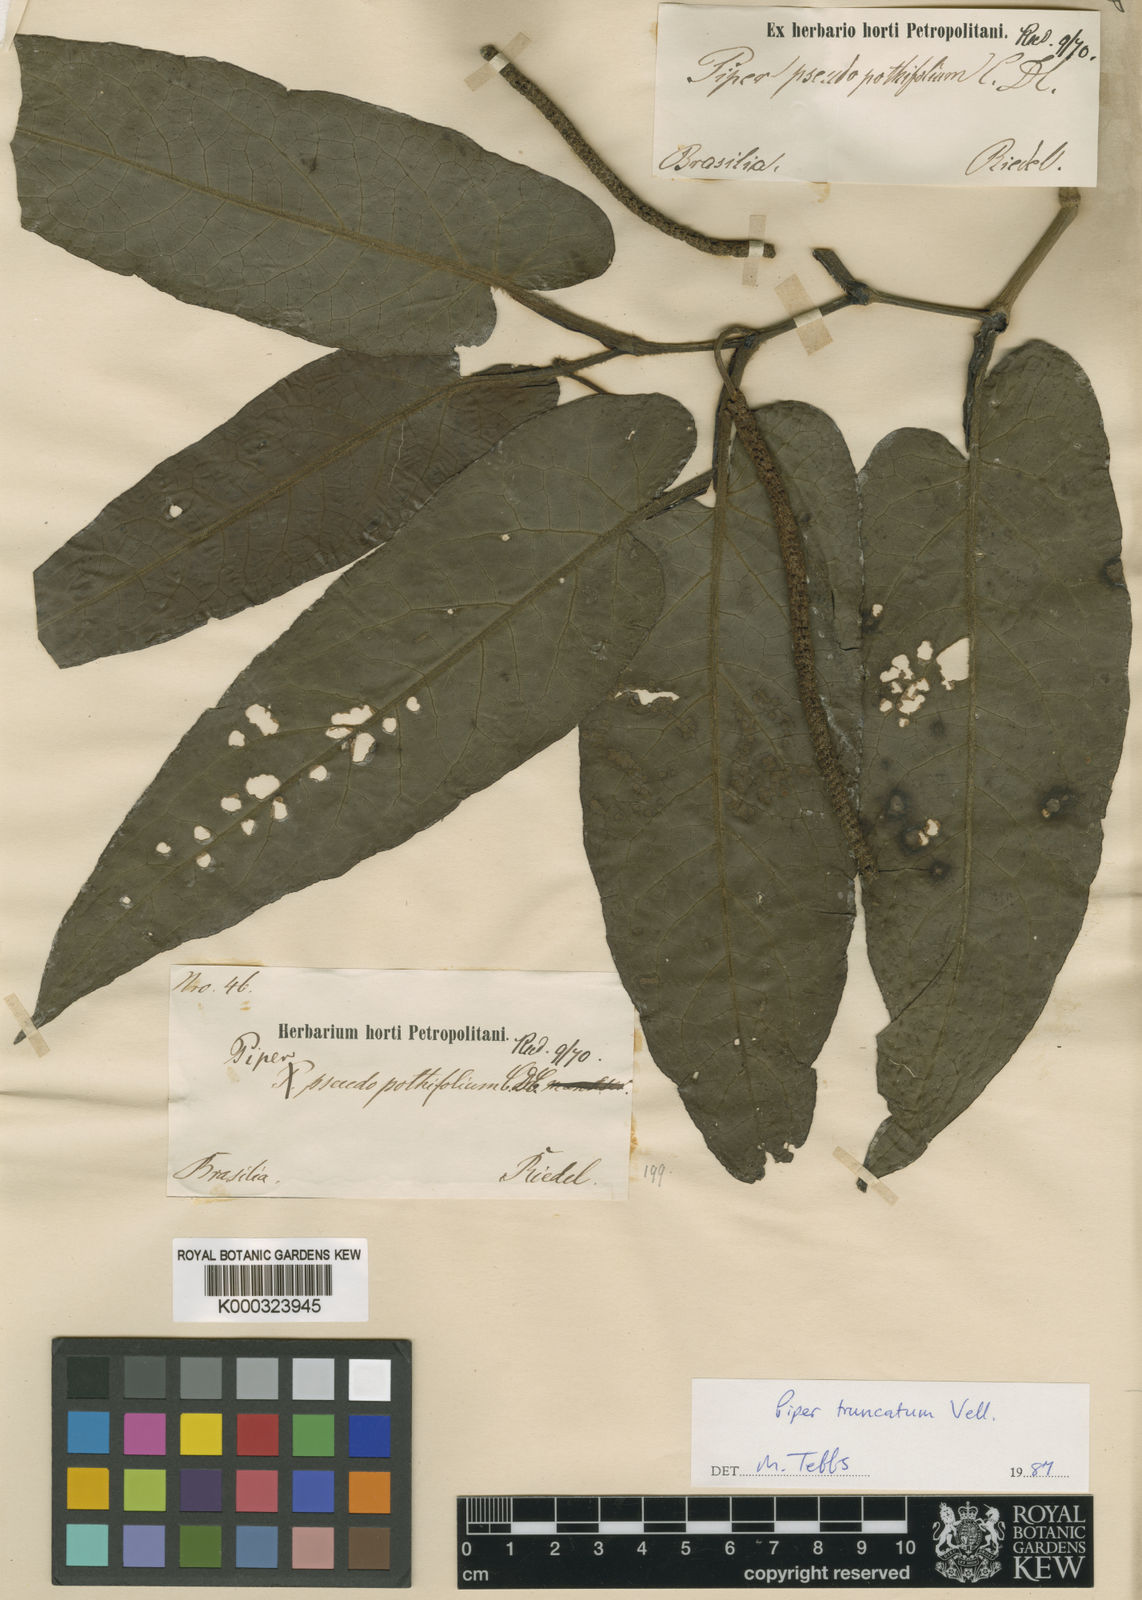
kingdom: Plantae
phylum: Tracheophyta
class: Magnoliopsida
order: Piperales
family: Piperaceae
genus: Piper
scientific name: Piper truncatum
